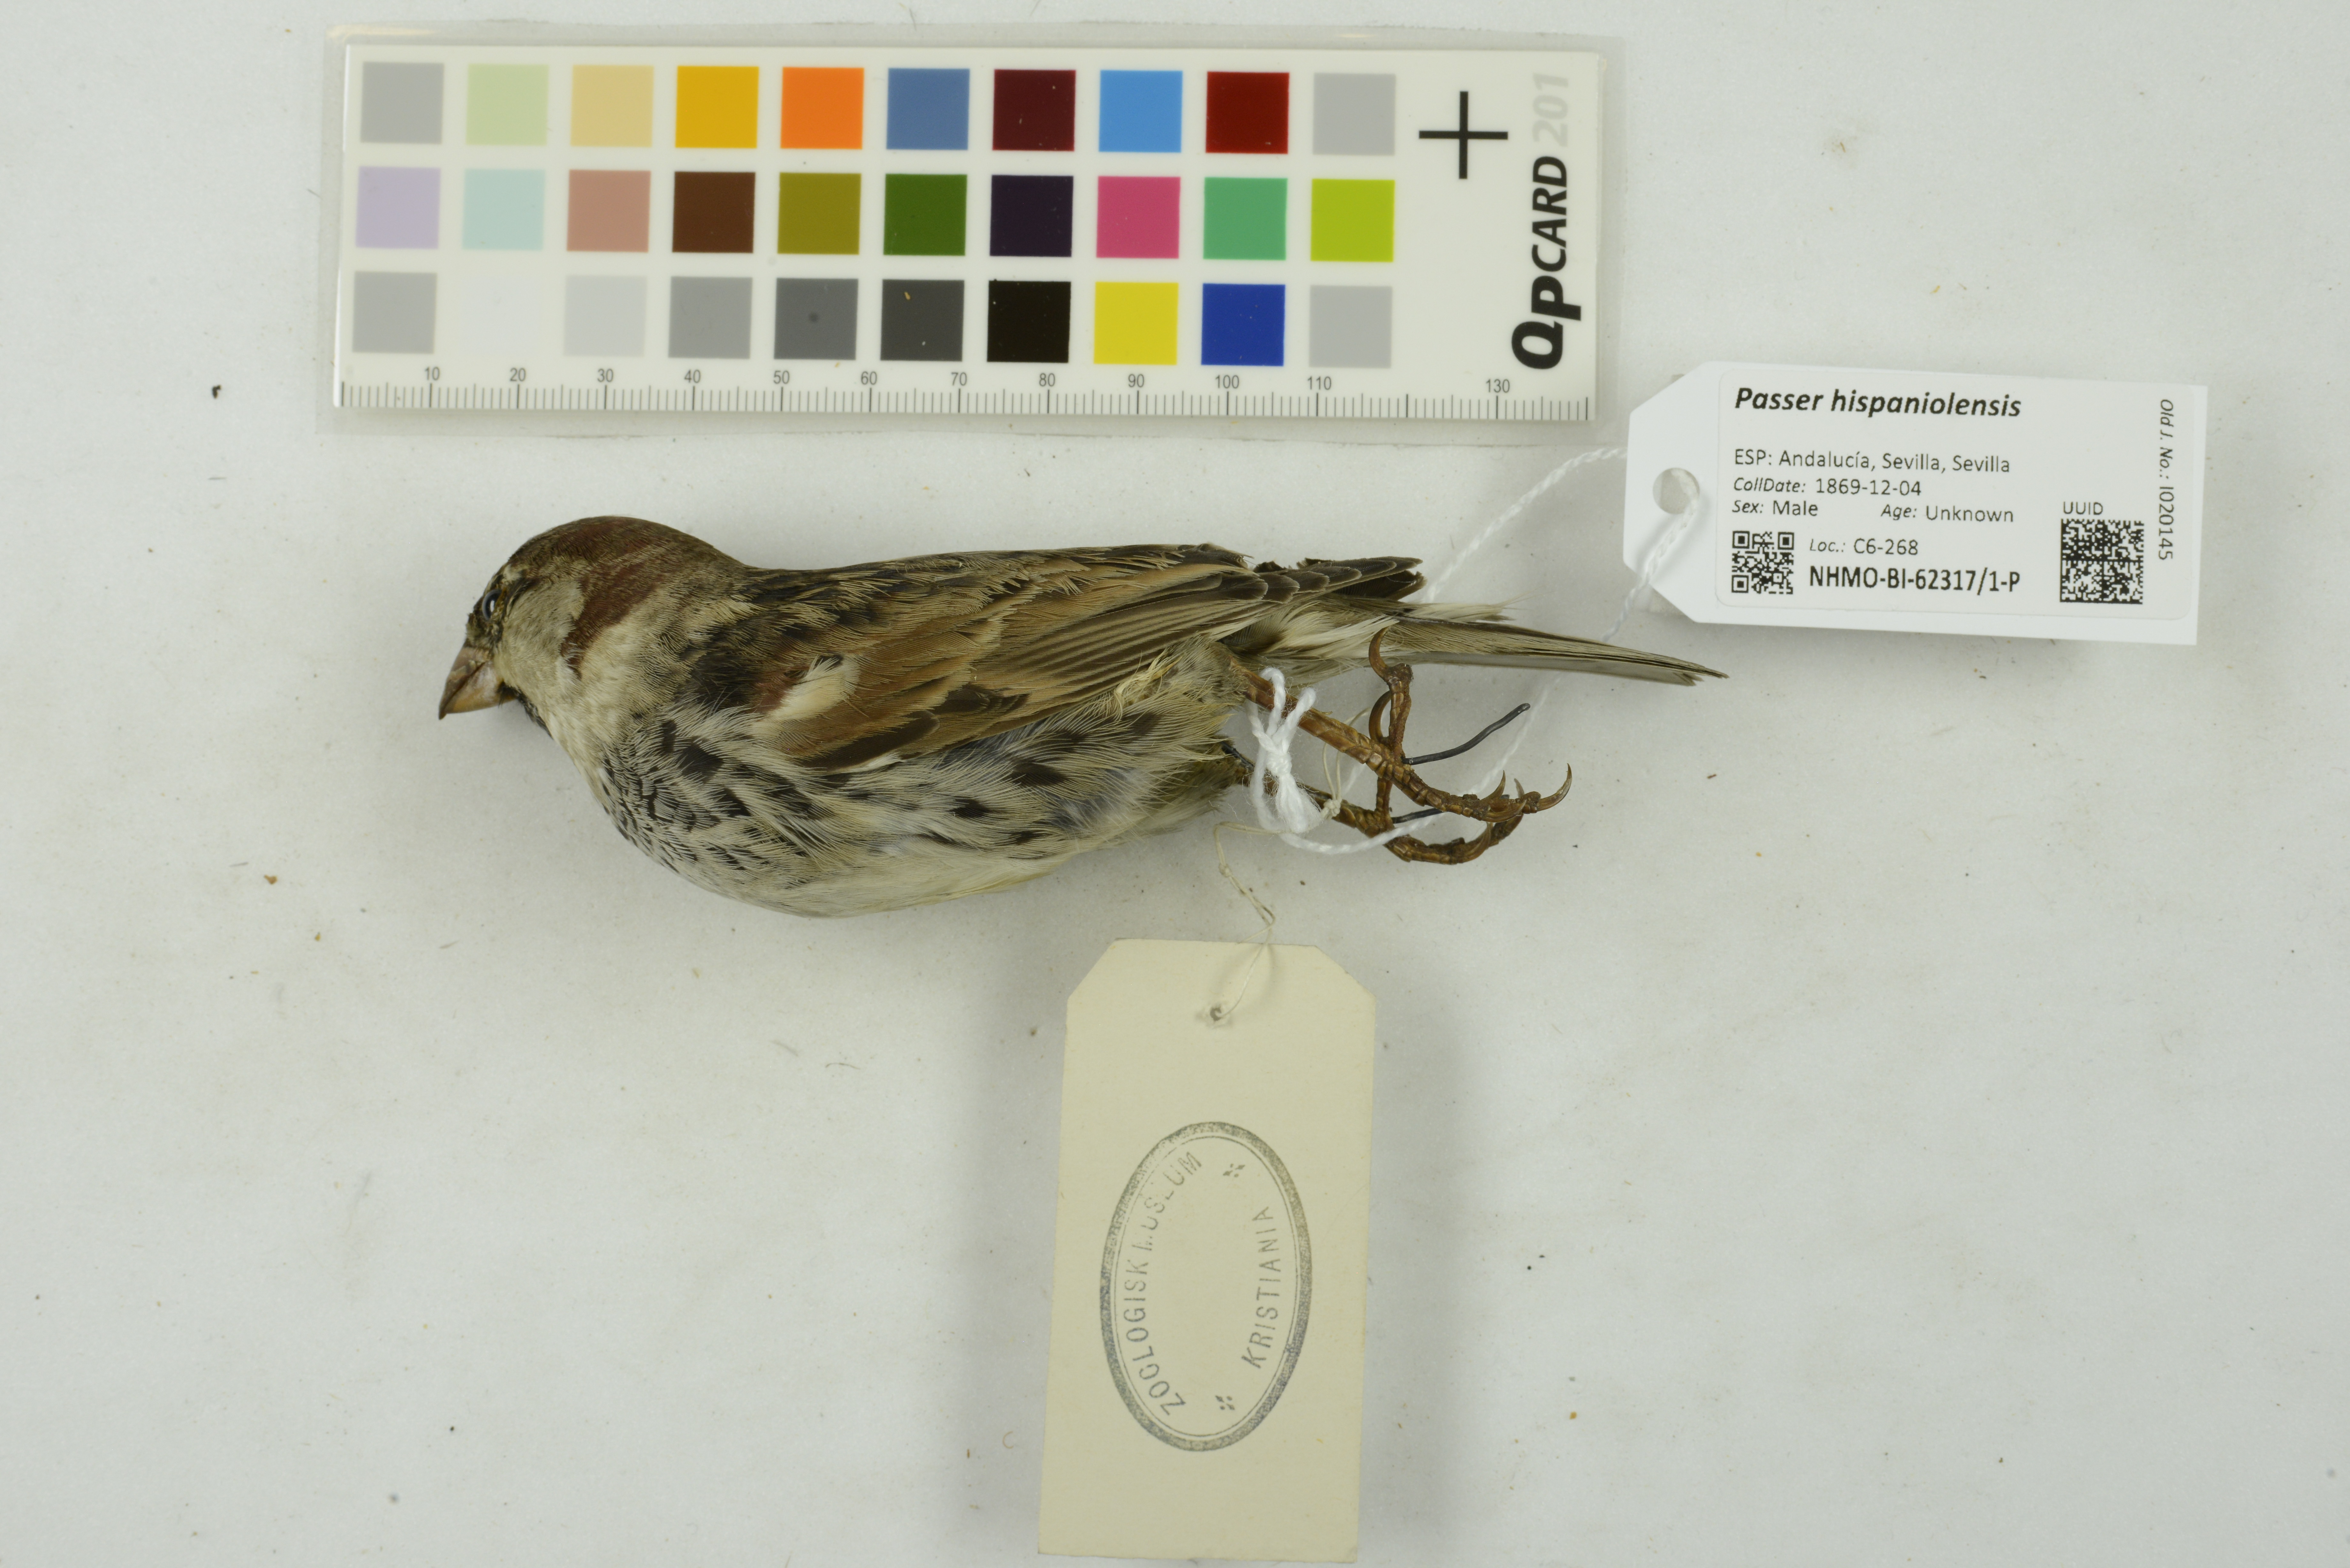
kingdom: Animalia
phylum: Chordata
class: Aves
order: Passeriformes
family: Passeridae
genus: Passer
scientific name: Passer hispaniolensis
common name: Spanish sparrow
